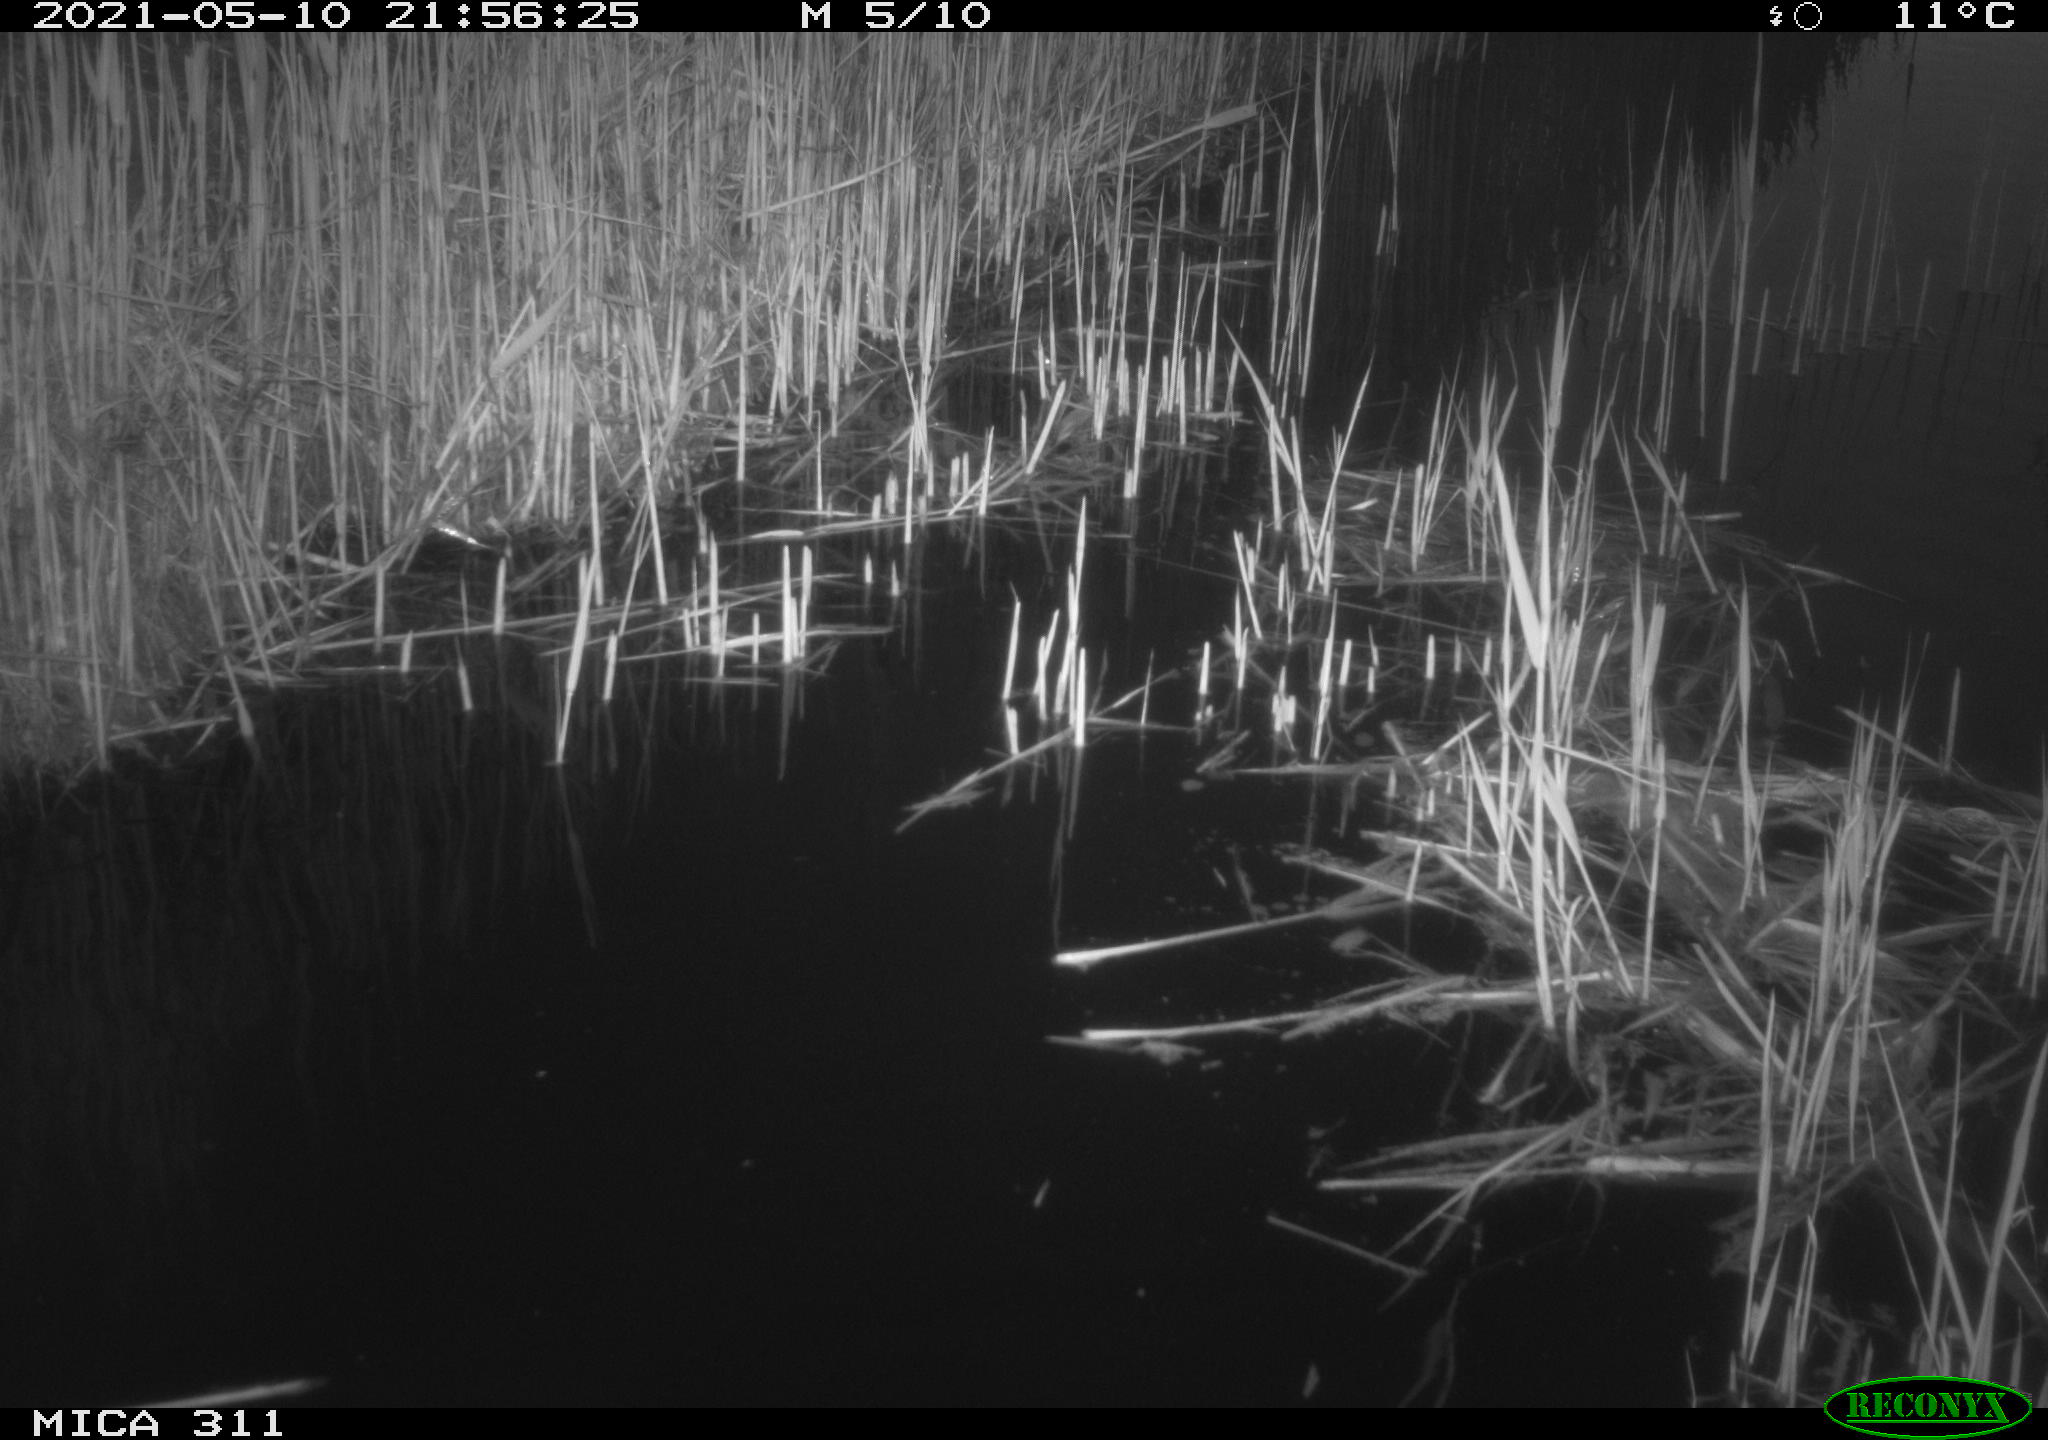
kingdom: Animalia
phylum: Chordata
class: Aves
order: Gruiformes
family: Rallidae
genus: Gallinula
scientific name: Gallinula chloropus
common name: Common moorhen
